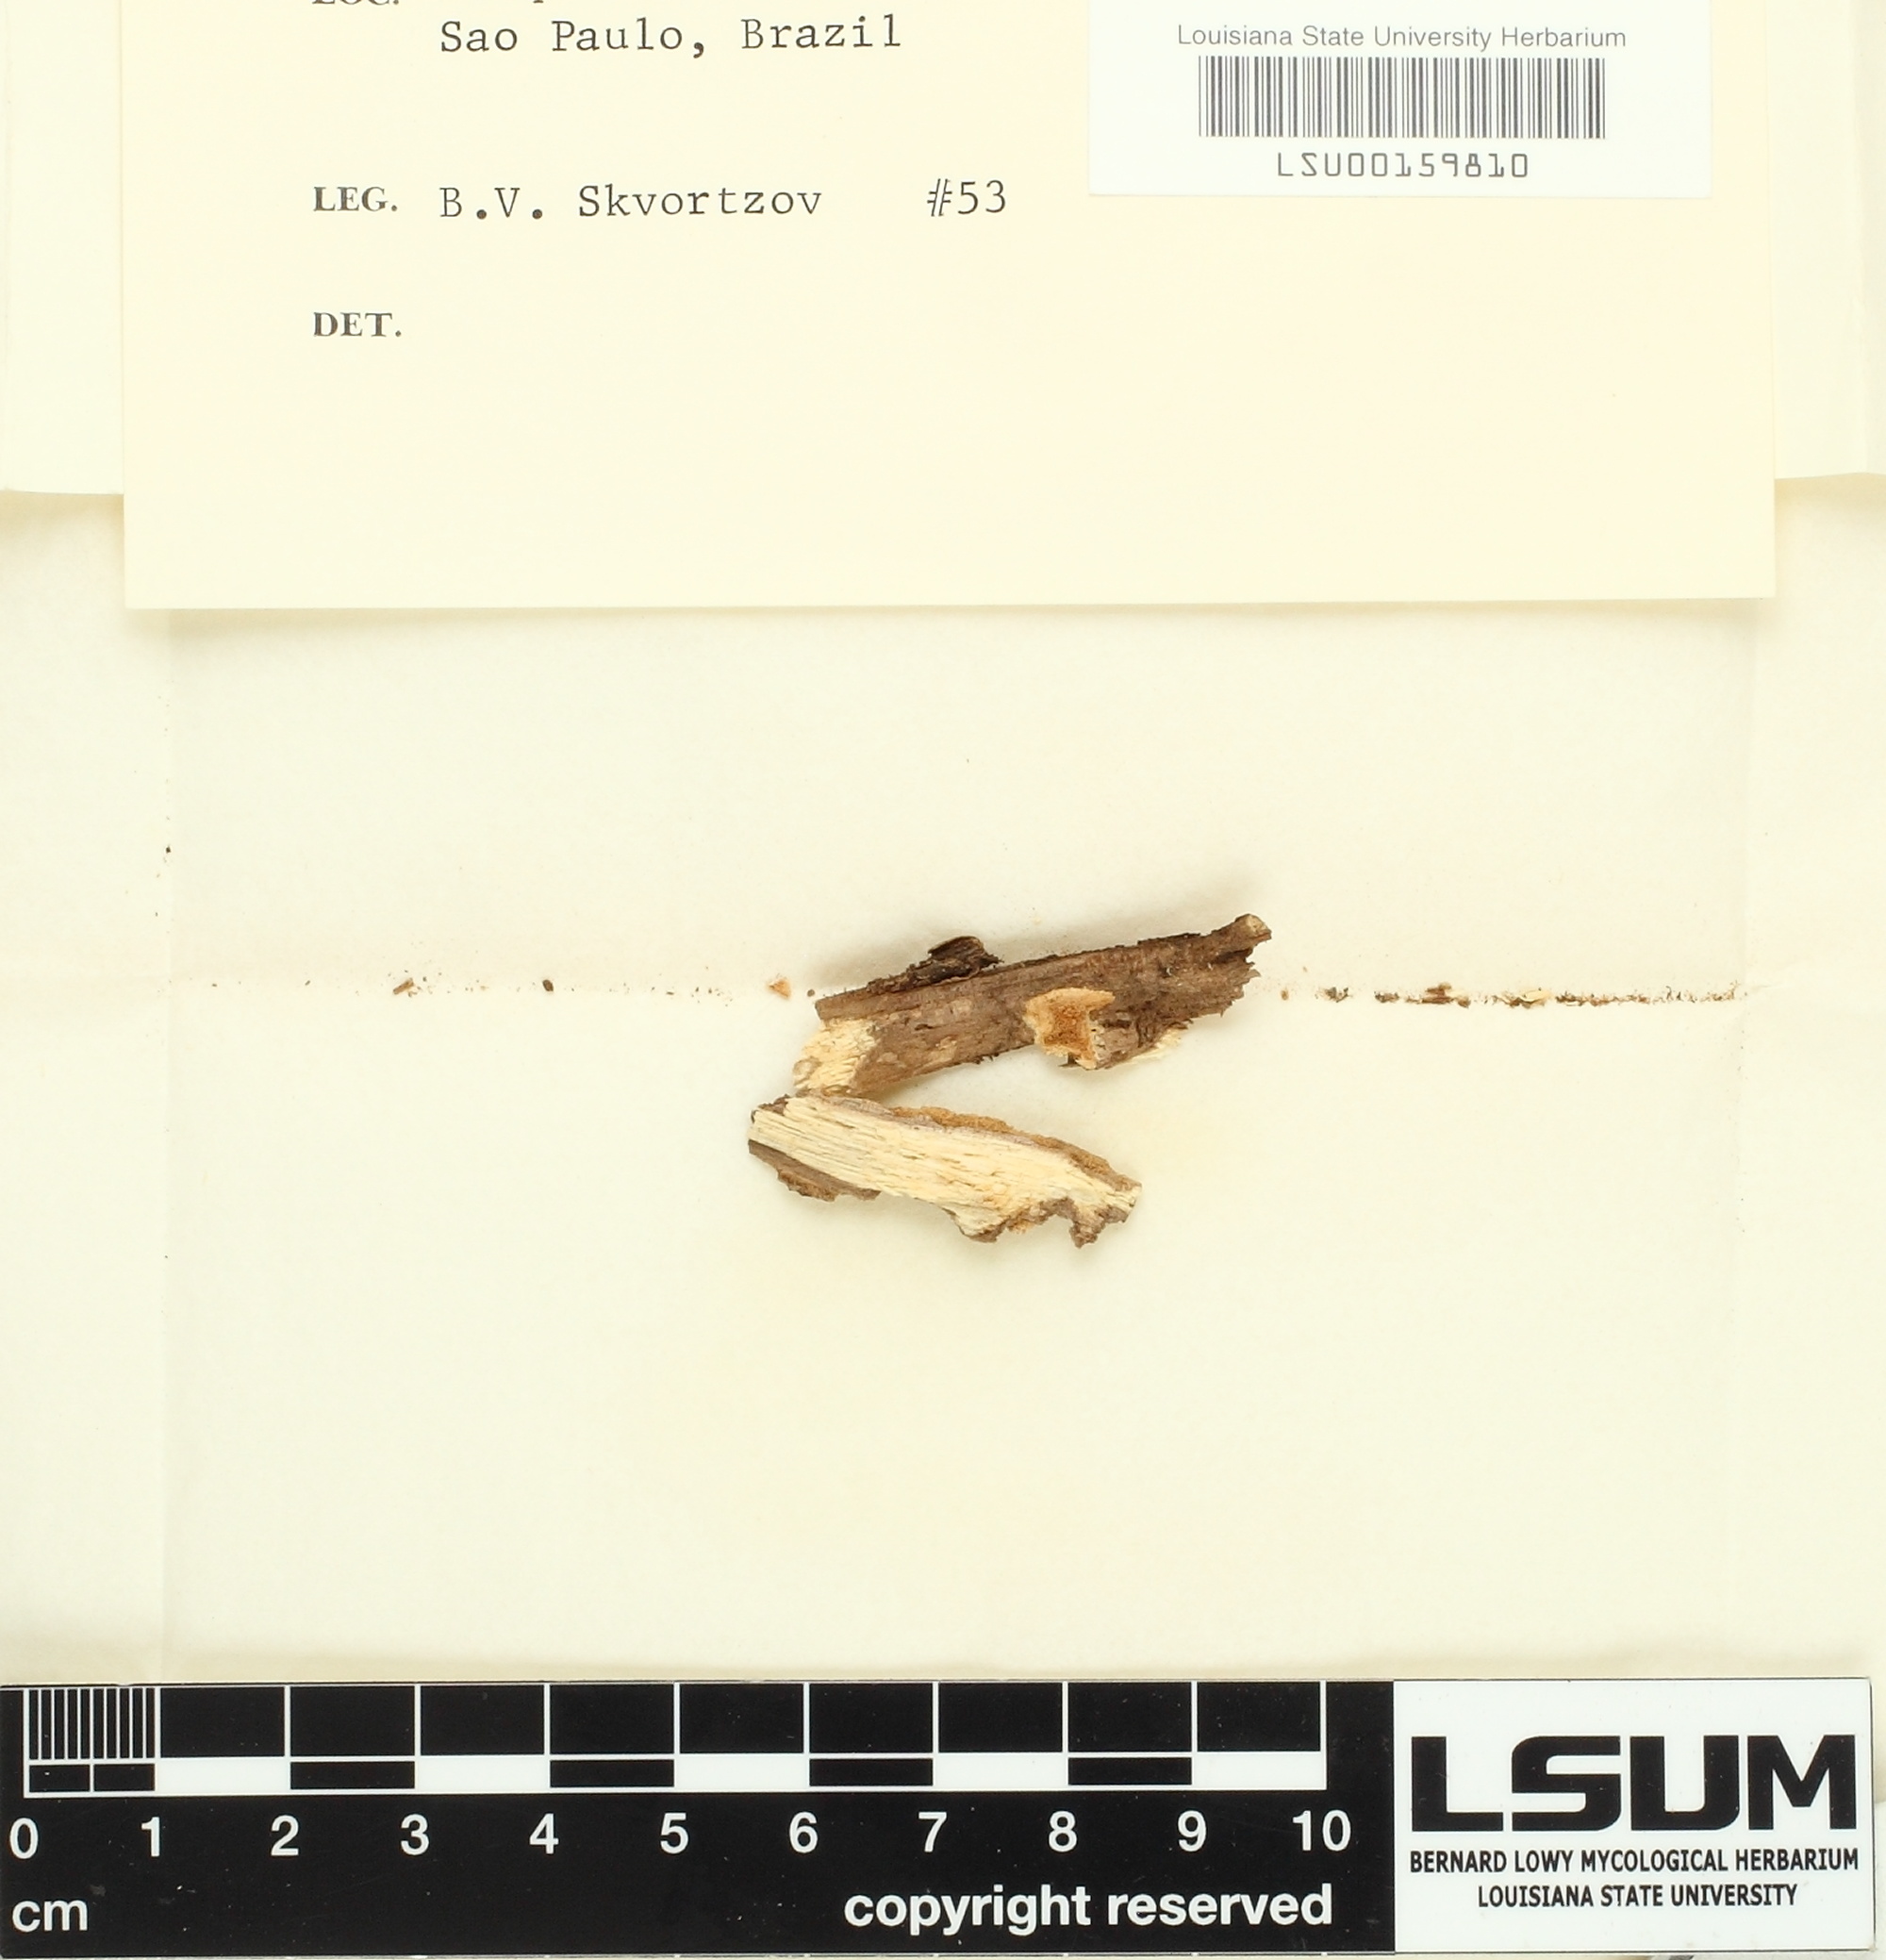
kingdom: Fungi
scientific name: Fungi
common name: Fungi
